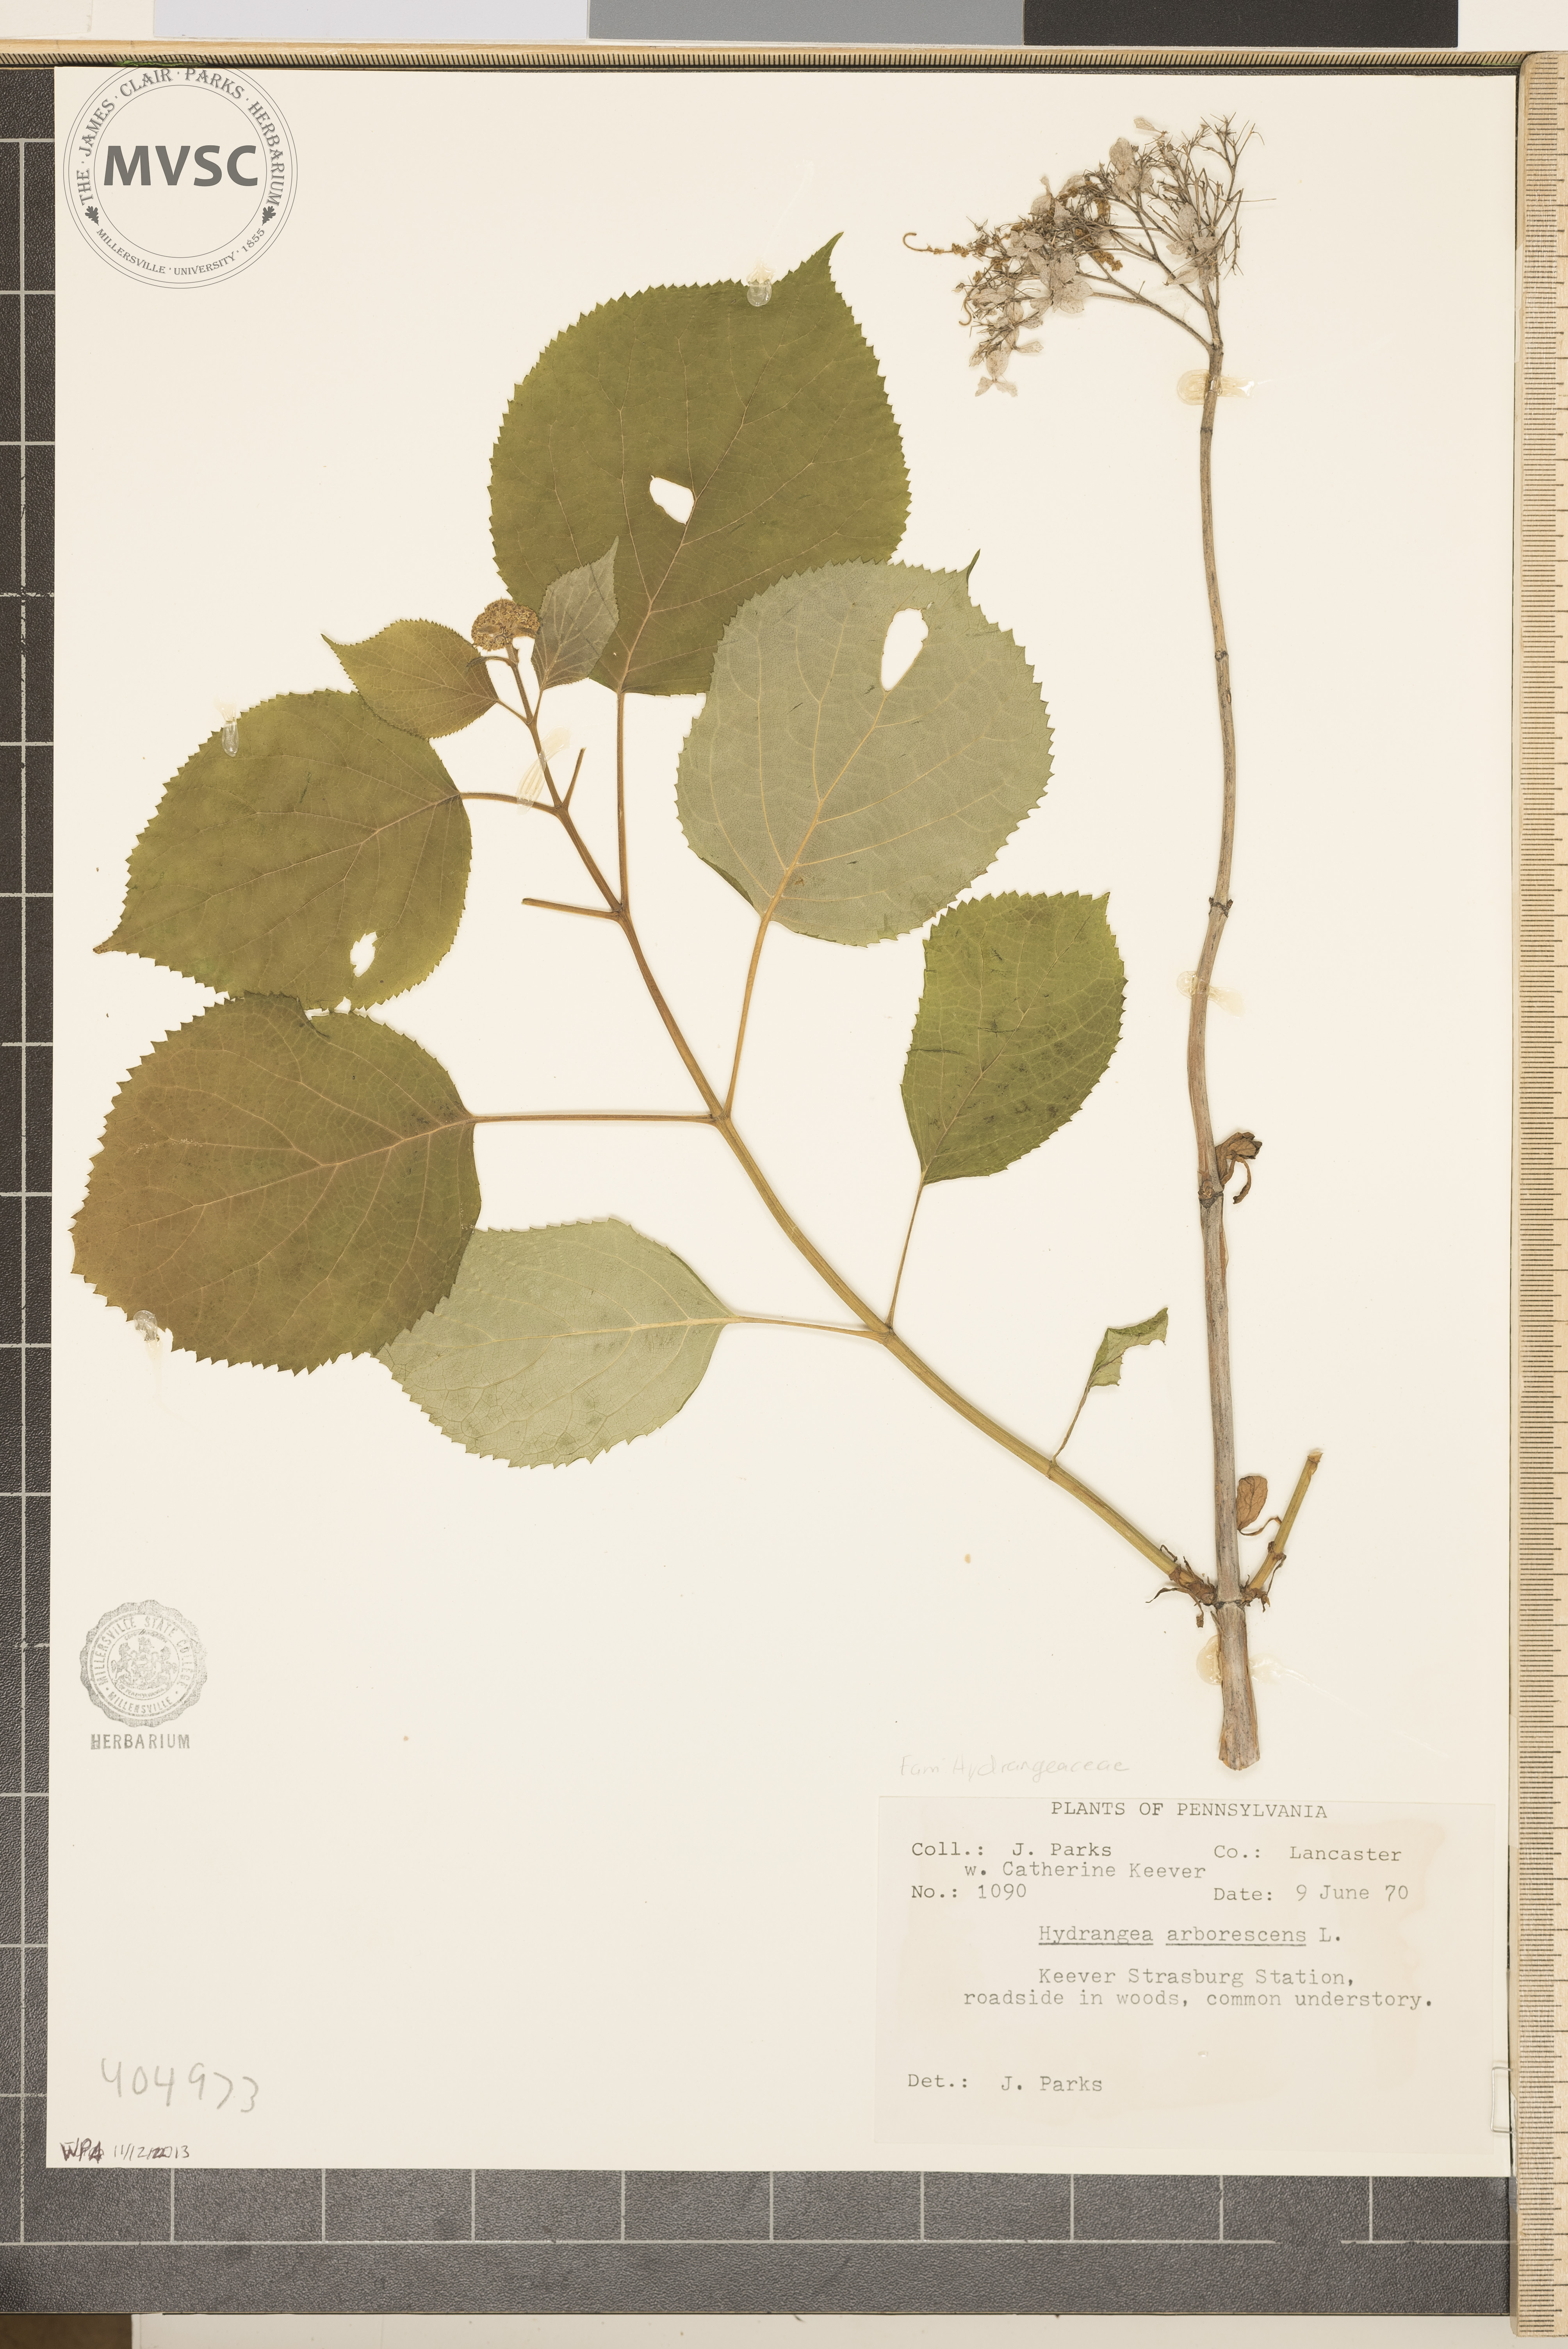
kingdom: Plantae
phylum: Tracheophyta
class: Magnoliopsida
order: Cornales
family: Hydrangeaceae
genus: Hydrangea
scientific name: Hydrangea arborescens
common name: Sevenbark
